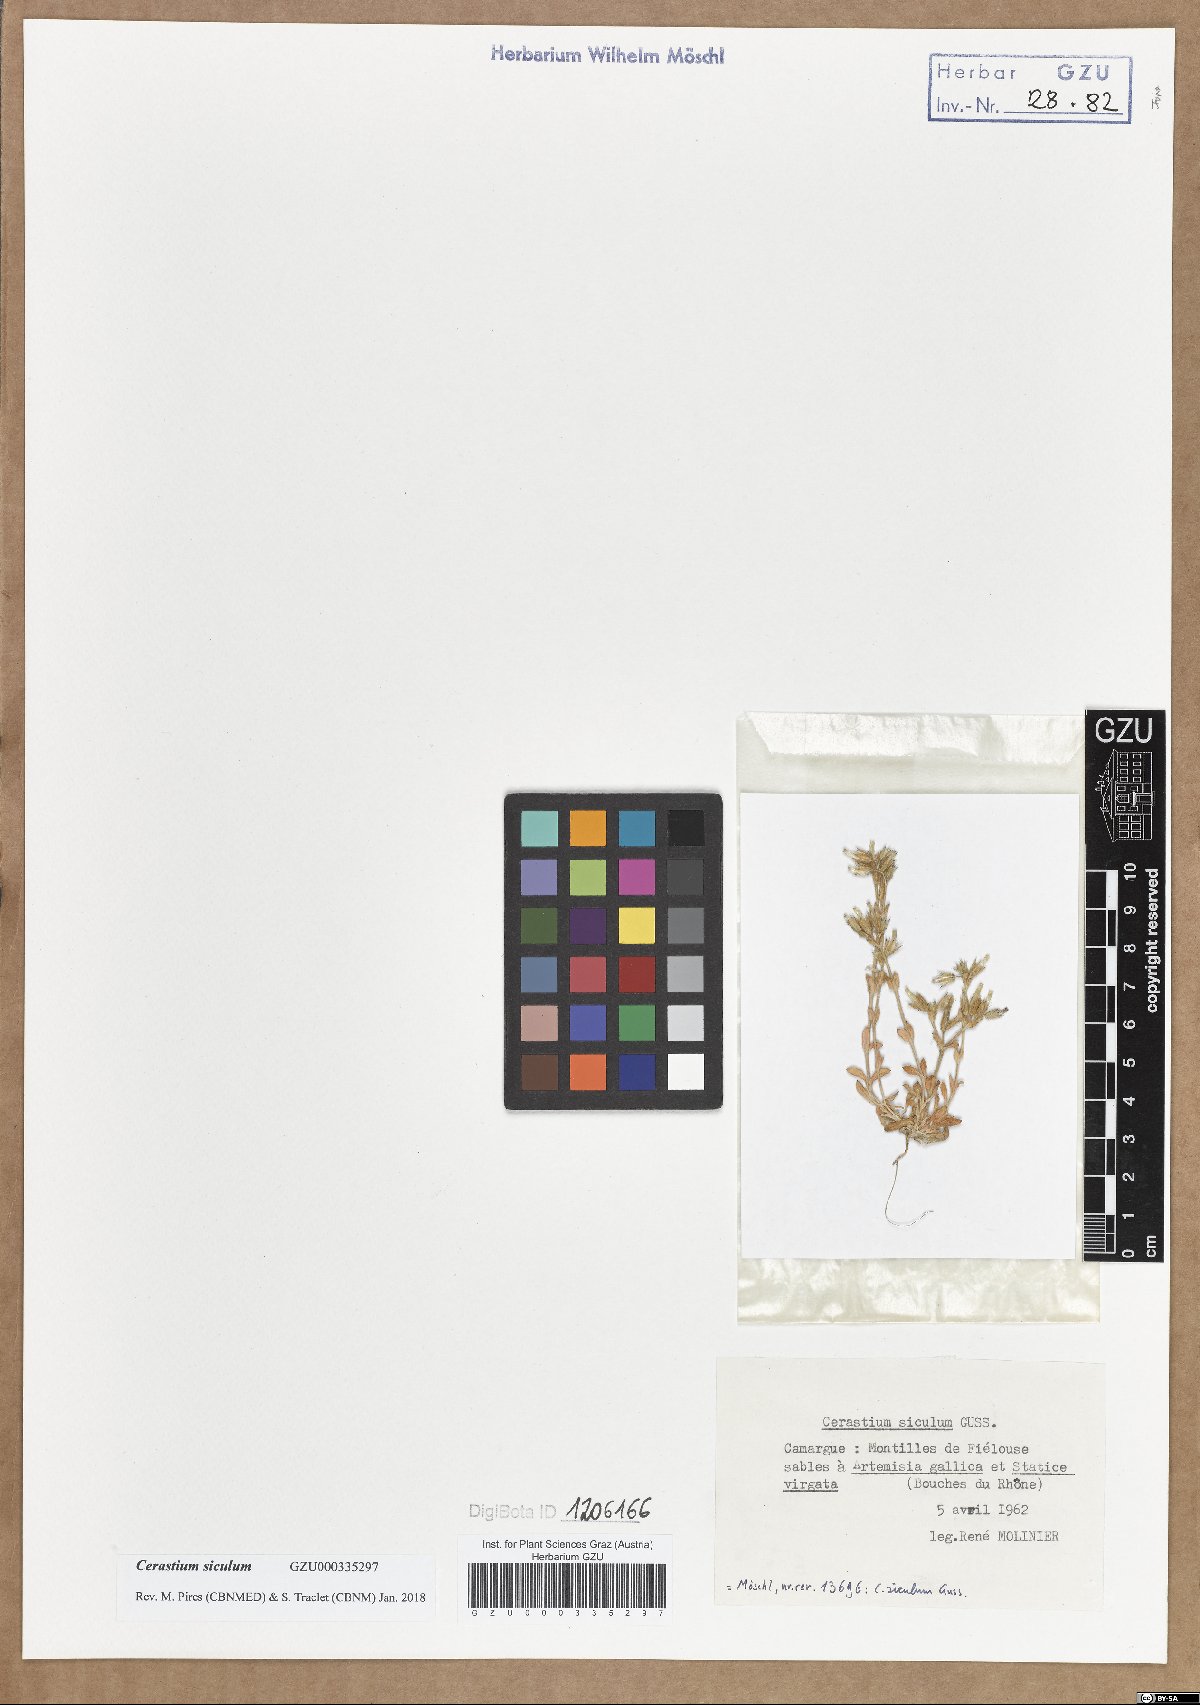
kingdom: Plantae
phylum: Tracheophyta
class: Magnoliopsida
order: Caryophyllales
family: Caryophyllaceae
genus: Cerastium
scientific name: Cerastium siculum
